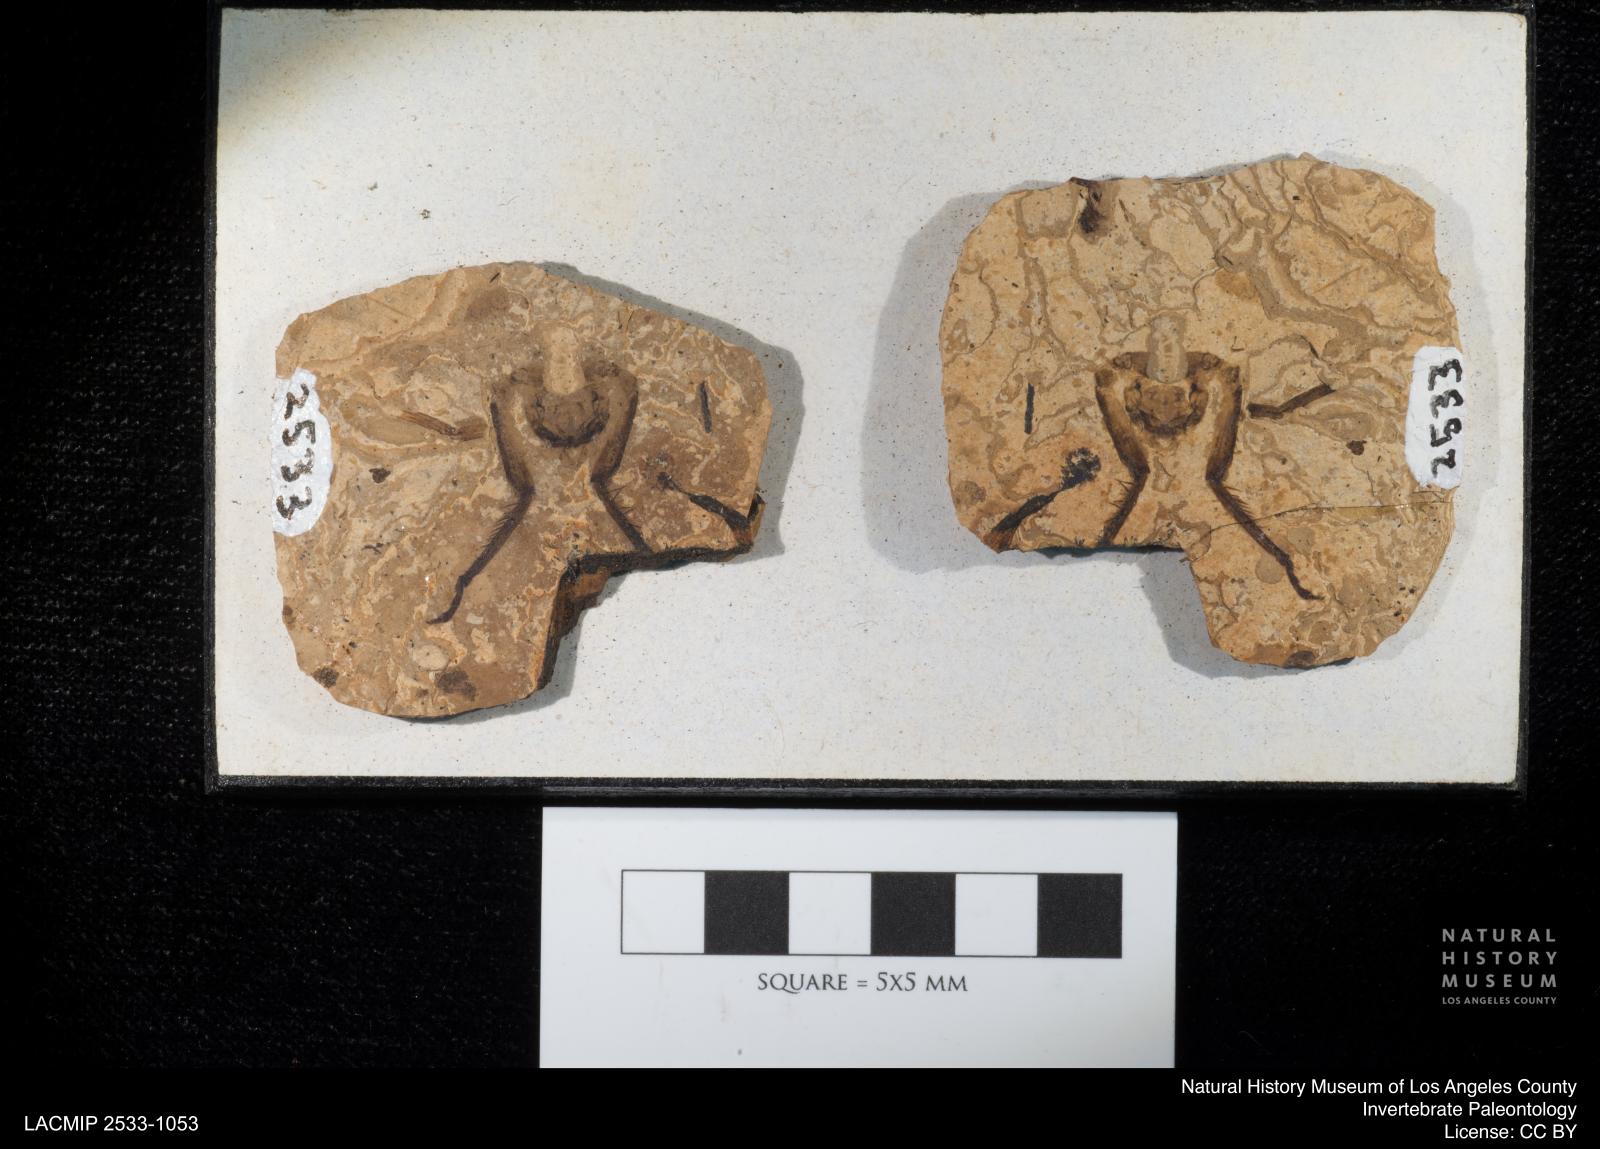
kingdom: Animalia
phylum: Arthropoda
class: Arachnida
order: Araneae
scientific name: Araneae
